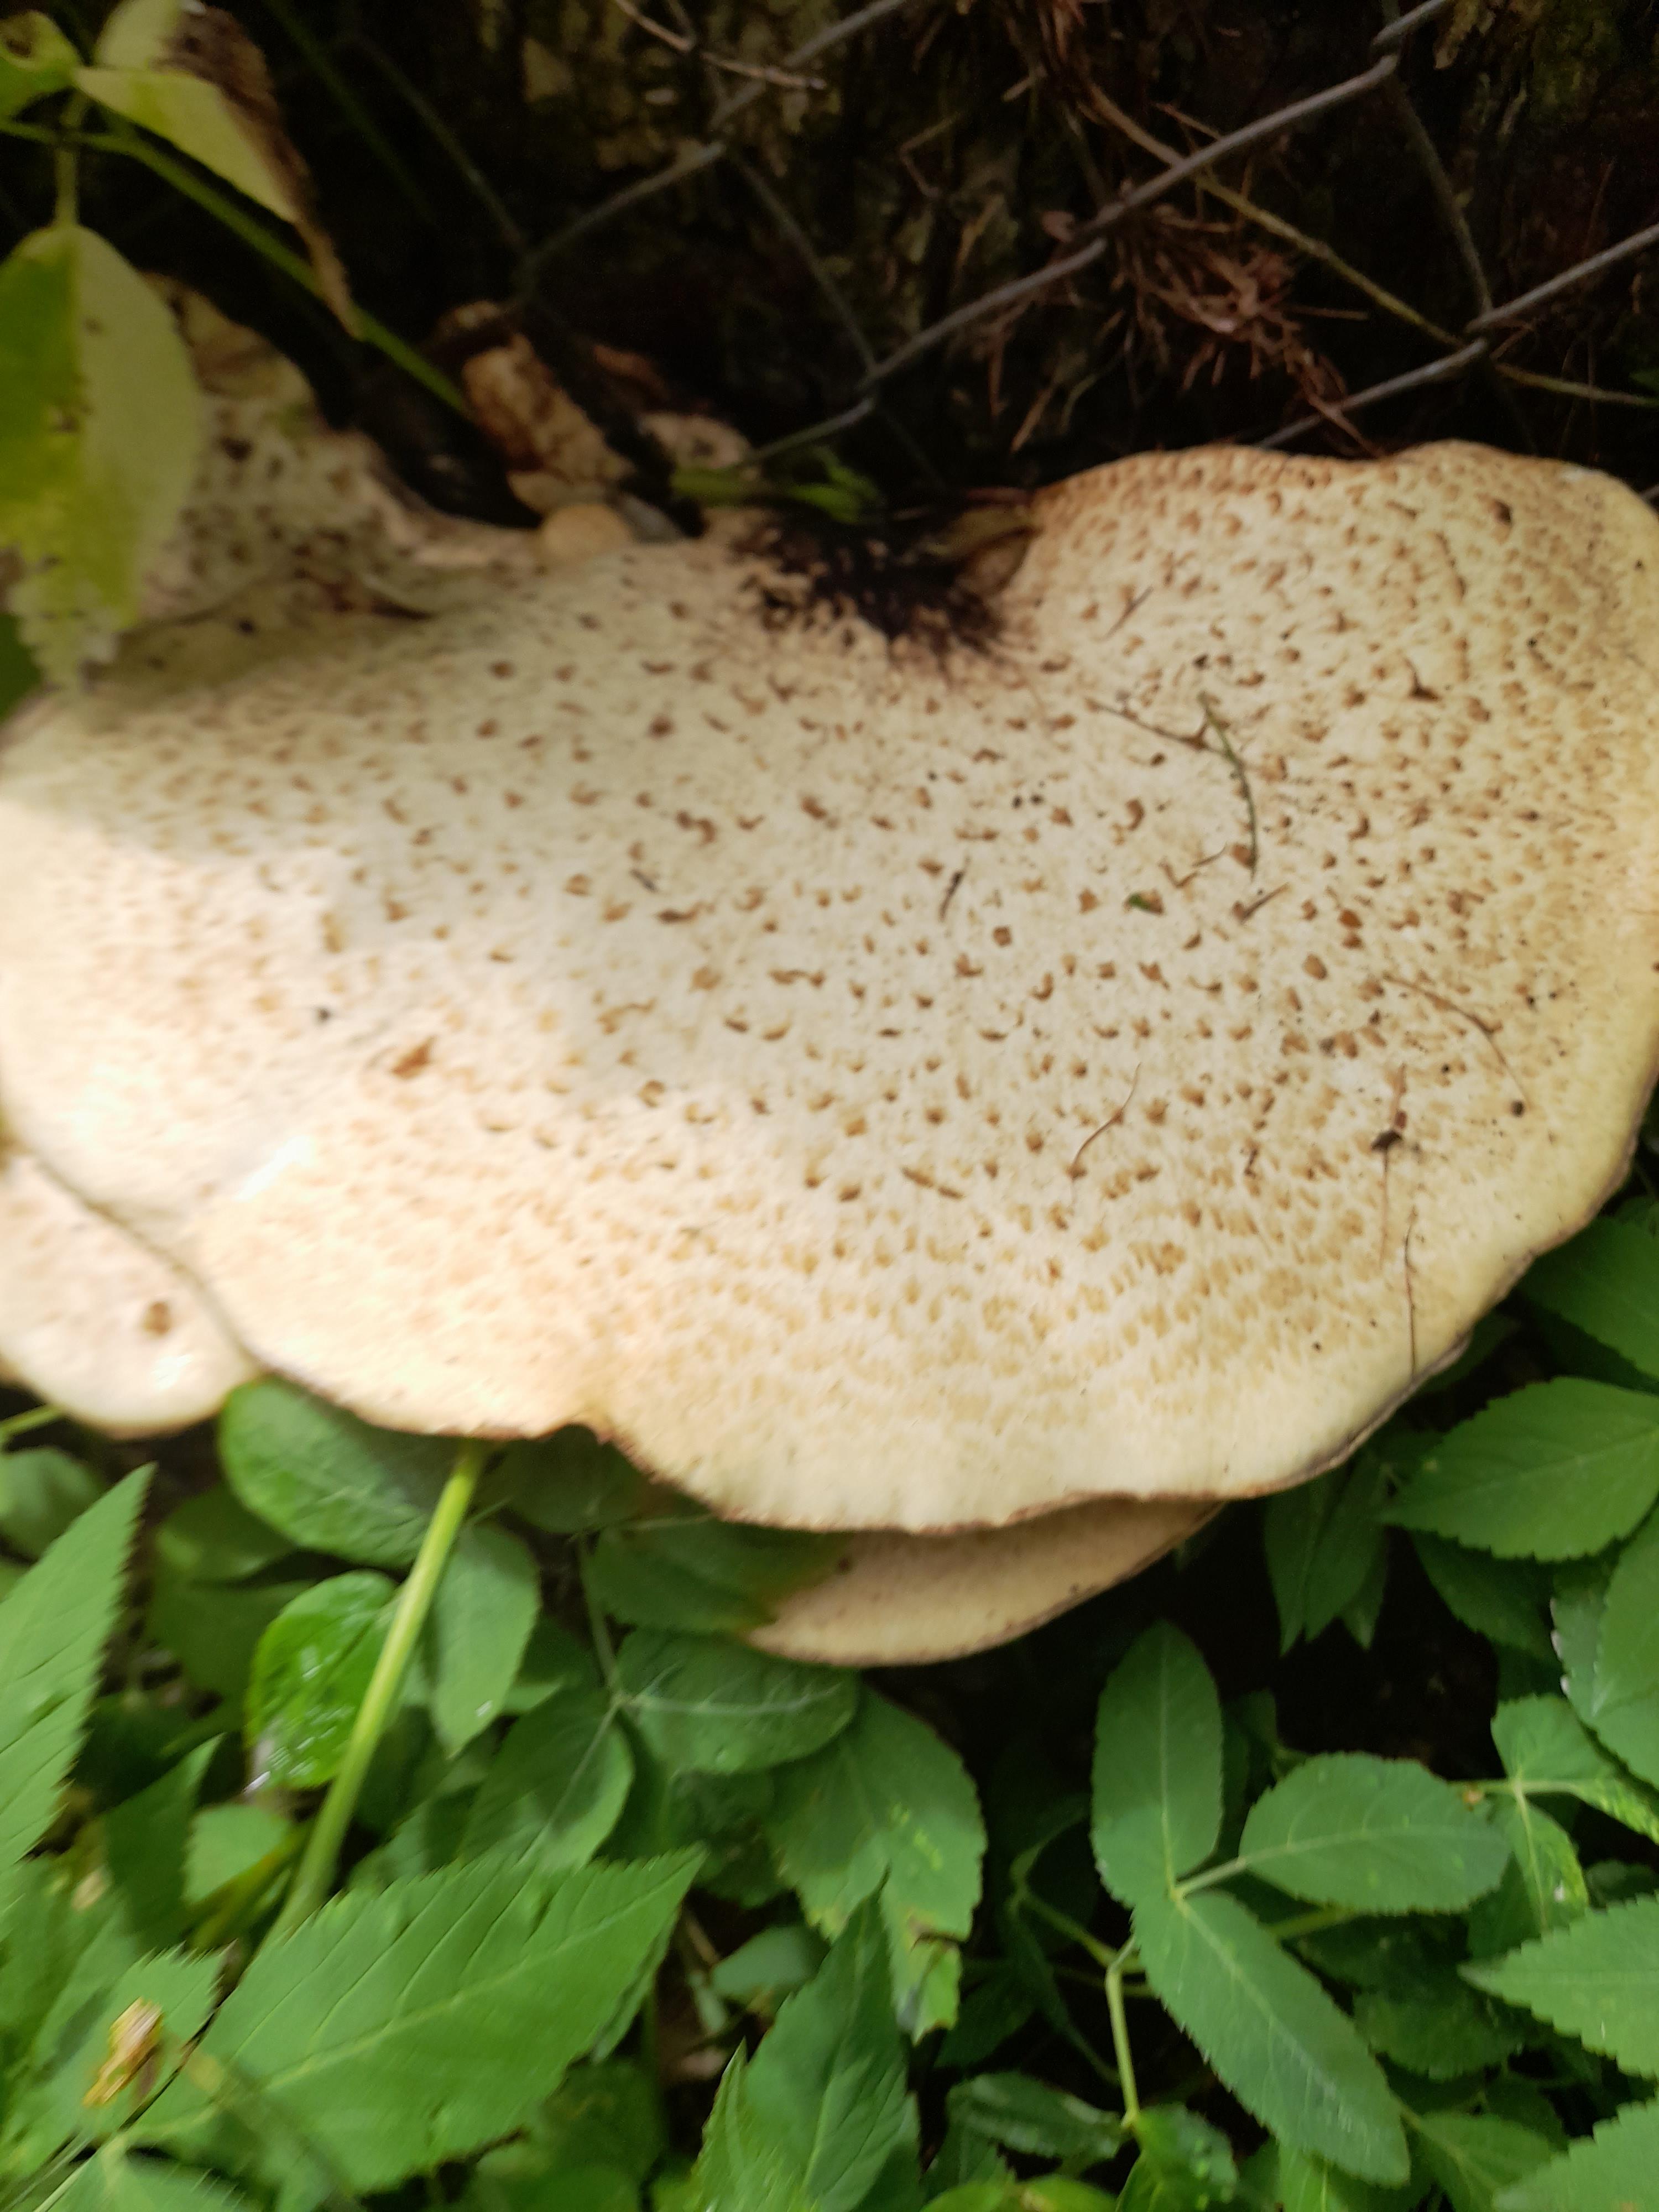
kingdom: Fungi
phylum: Basidiomycota
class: Agaricomycetes
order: Polyporales
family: Polyporaceae
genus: Cerioporus
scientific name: Cerioporus squamosus
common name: skællet stilkporesvamp
